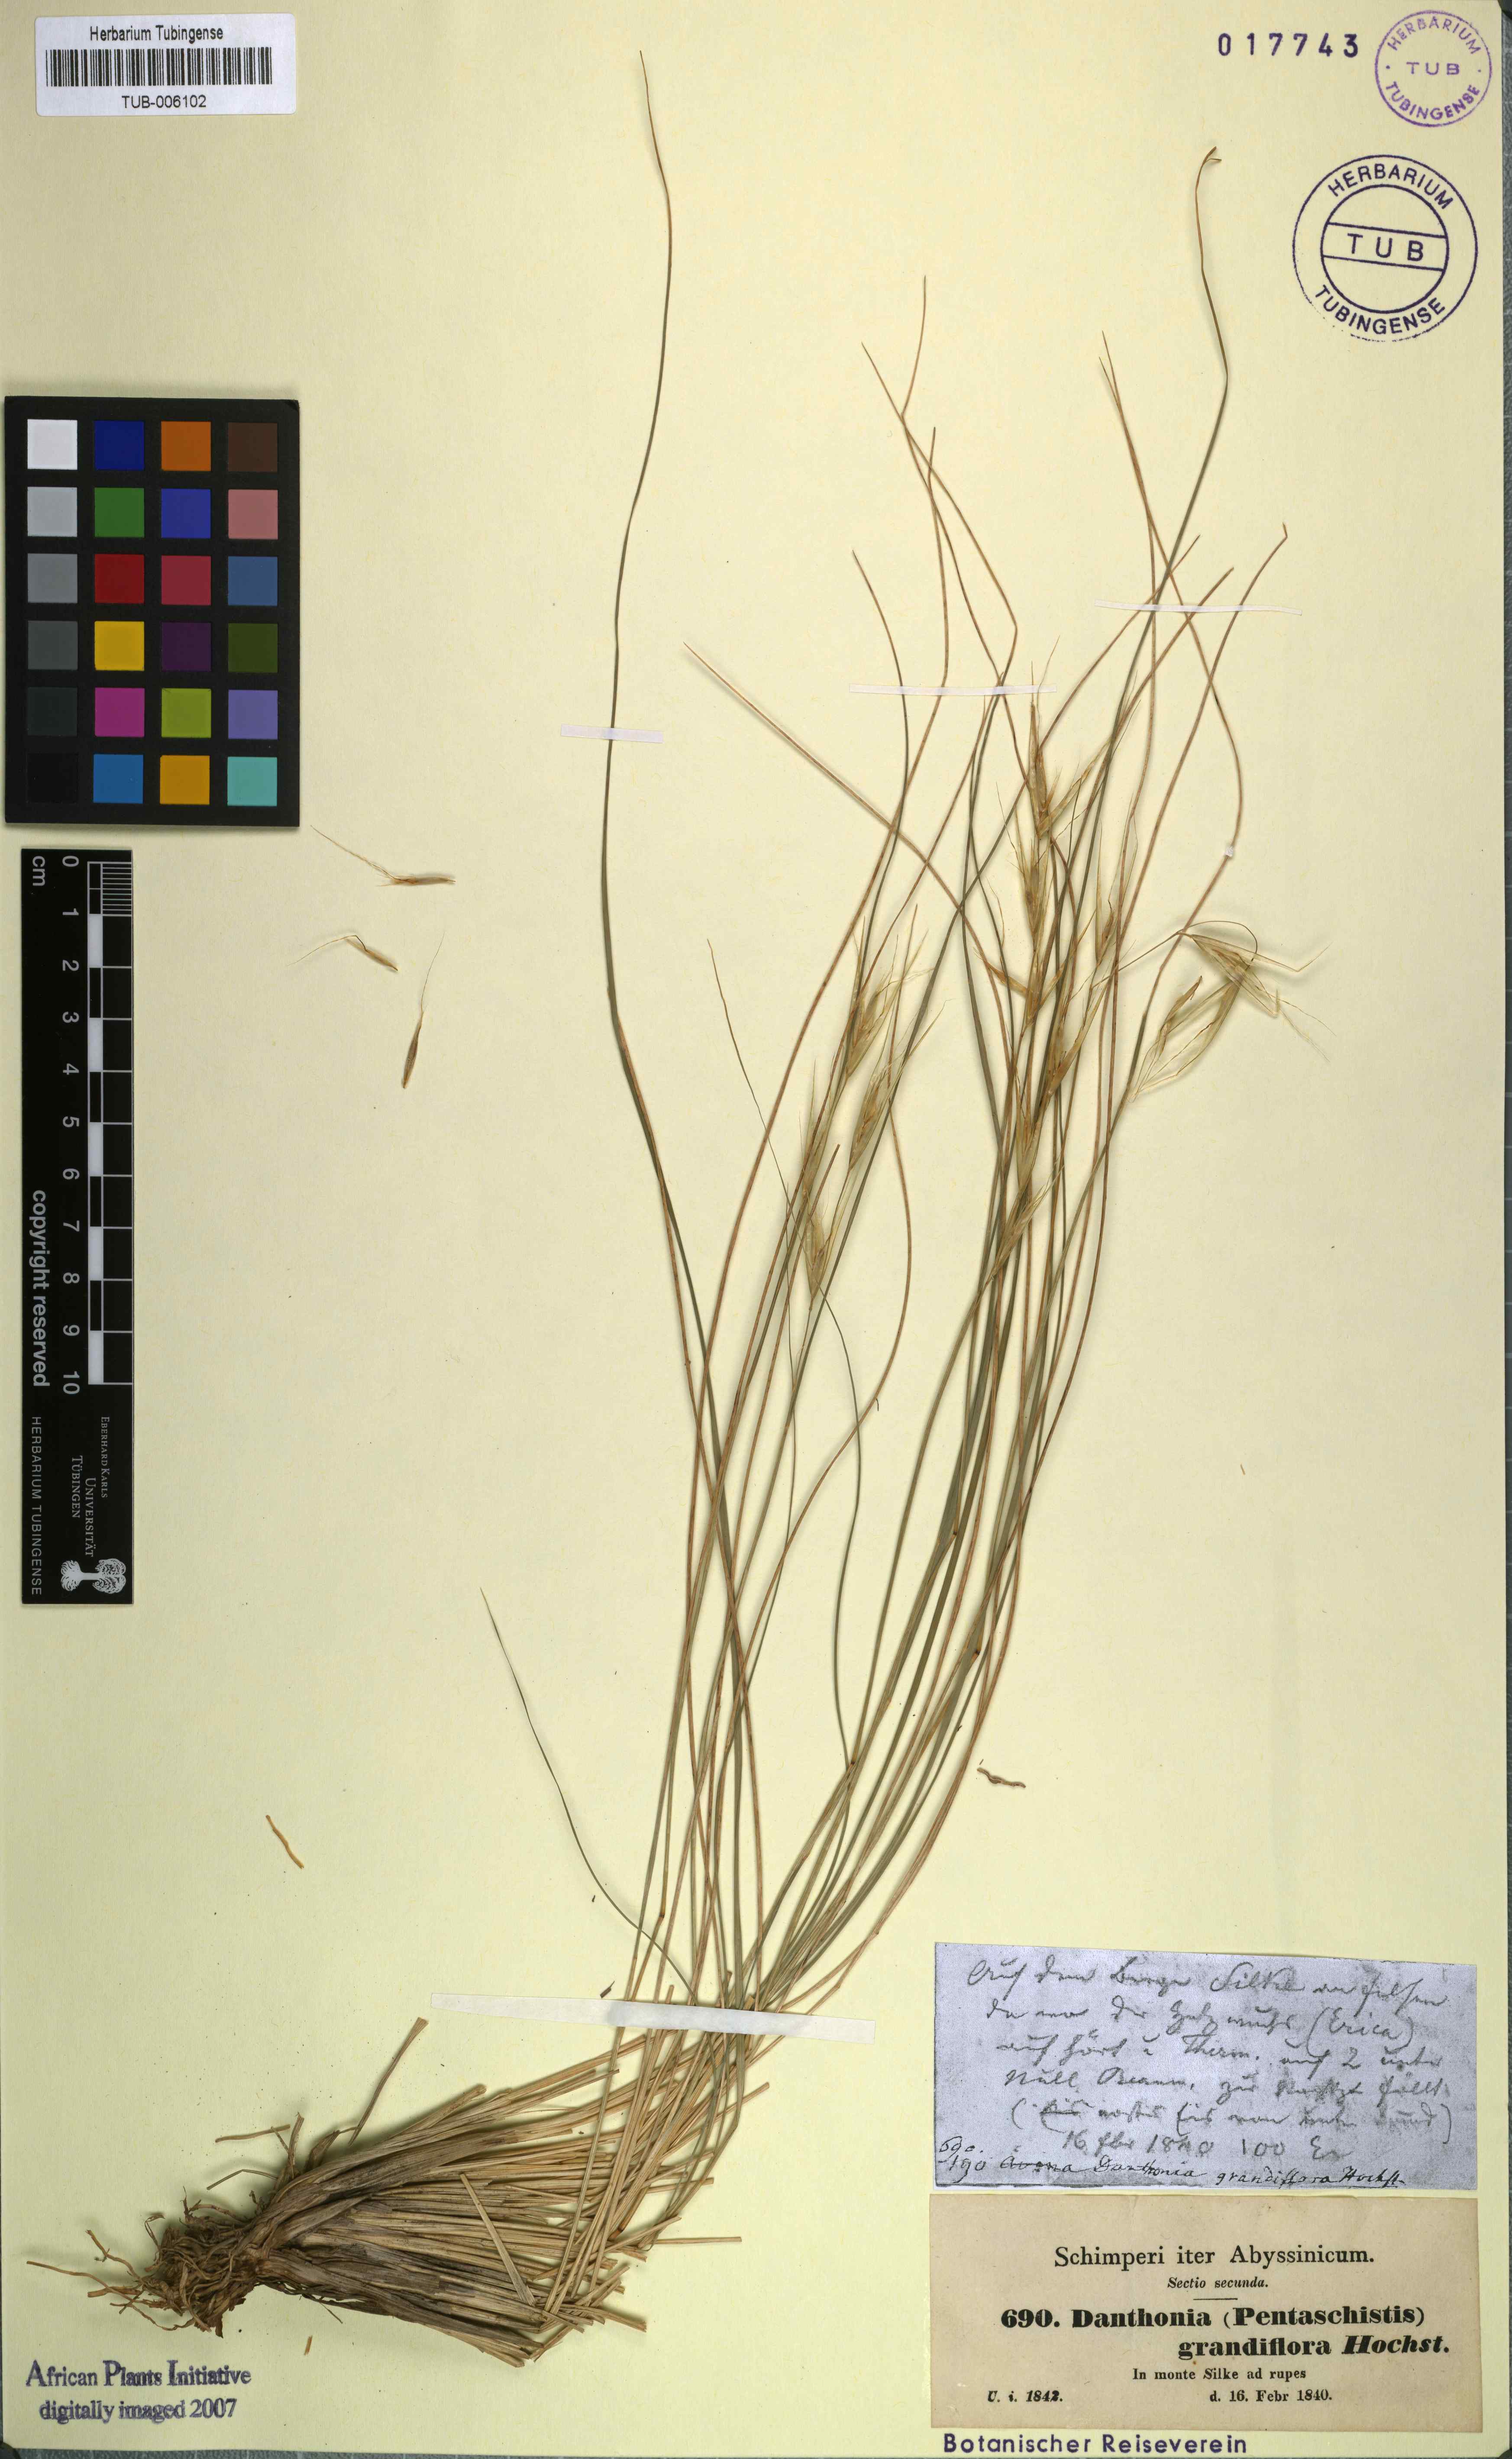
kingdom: Plantae
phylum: Tracheophyta
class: Liliopsida
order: Poales
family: Poaceae
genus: Merxmuellera
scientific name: Merxmuellera grandiflora
